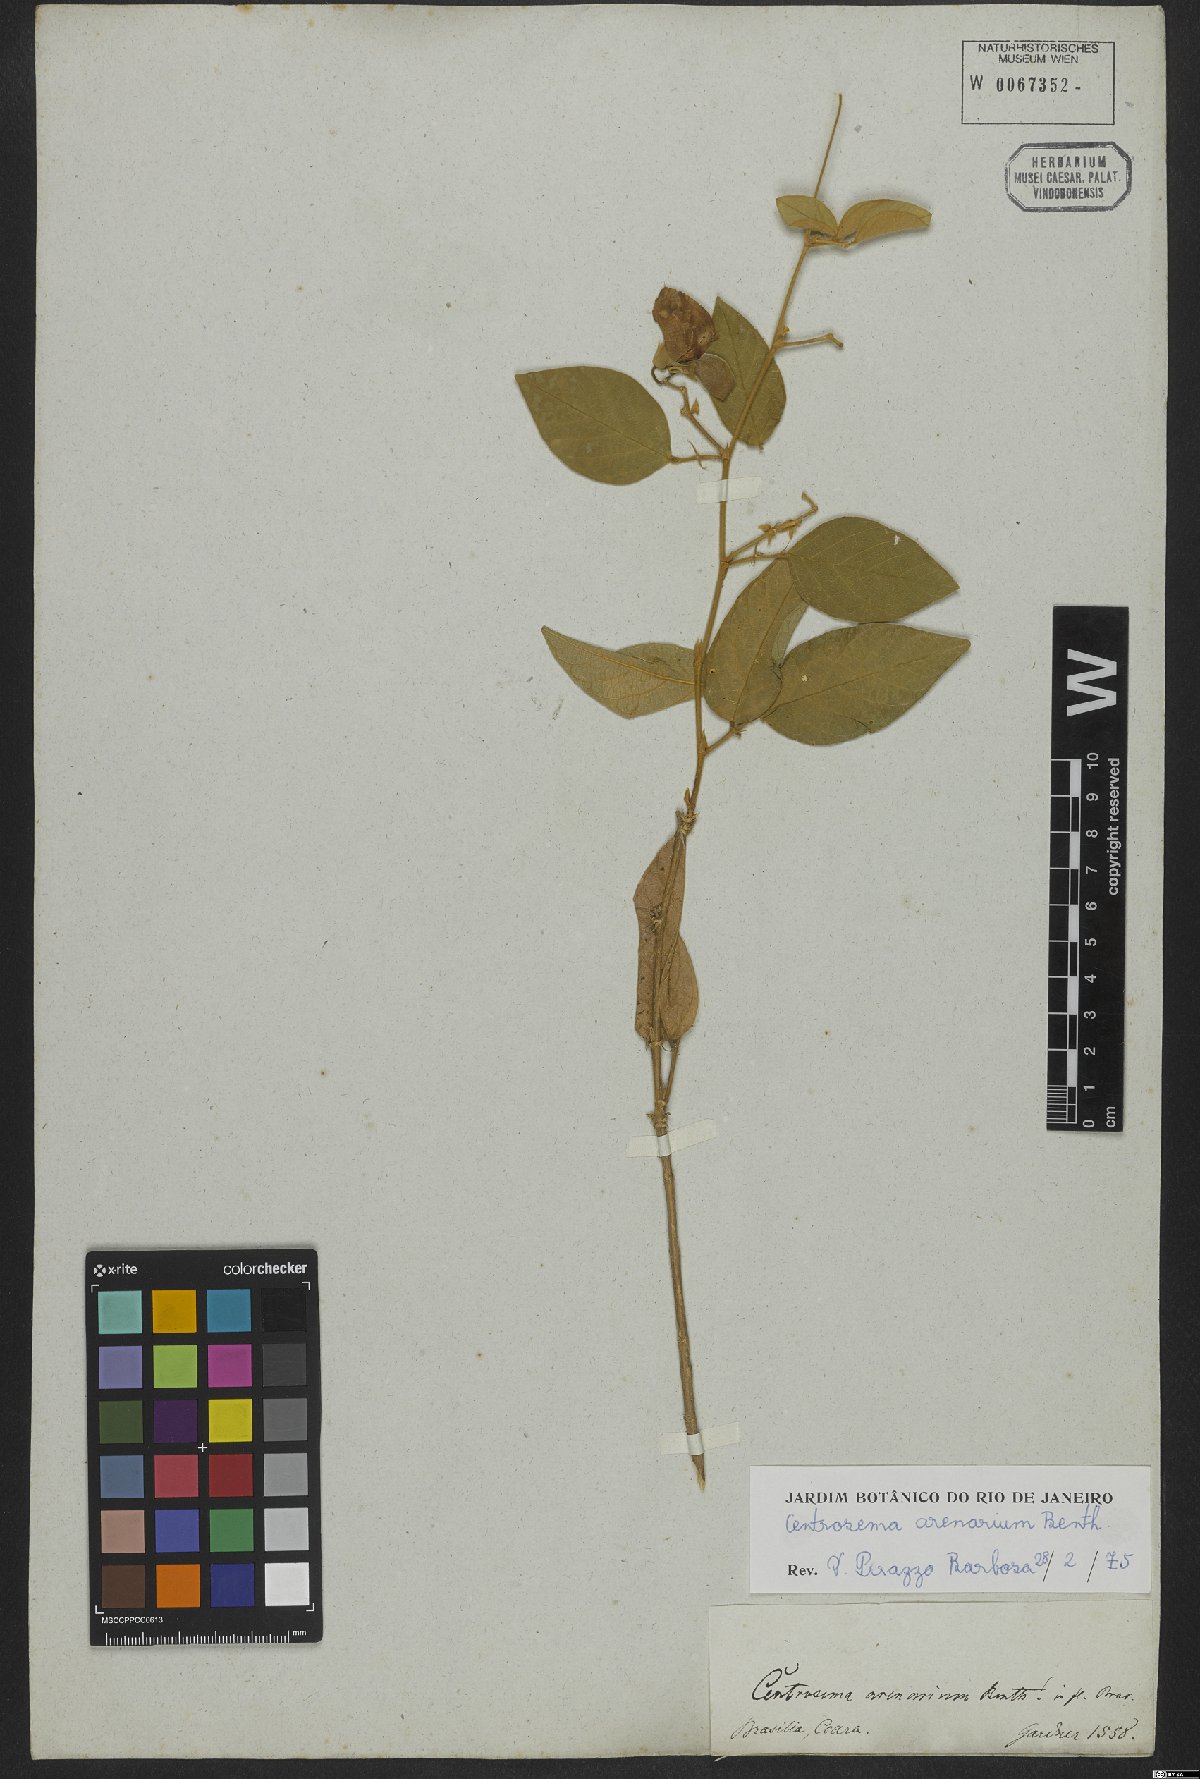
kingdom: Plantae
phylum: Tracheophyta
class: Magnoliopsida
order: Fabales
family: Fabaceae
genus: Centrosema
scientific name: Centrosema arenarium
